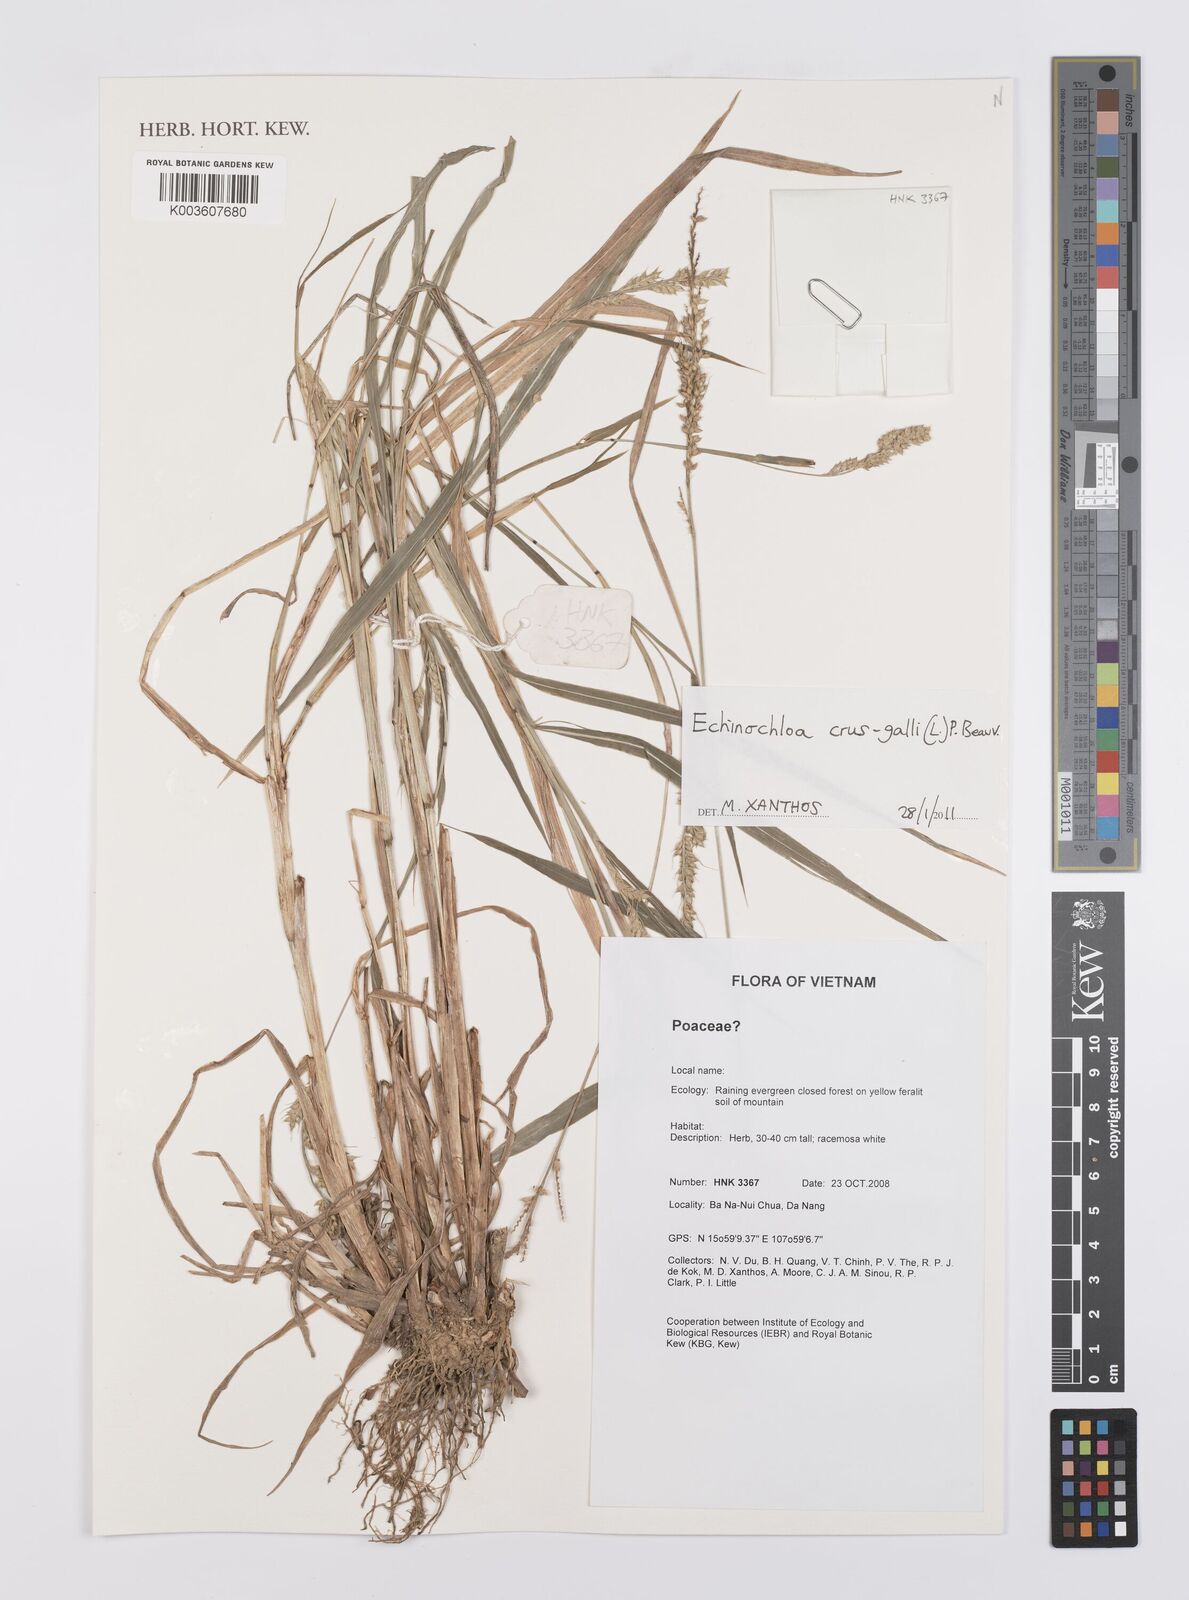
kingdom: Plantae
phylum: Tracheophyta
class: Liliopsida
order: Poales
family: Poaceae
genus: Echinochloa
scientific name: Echinochloa crus-galli
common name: Cockspur
